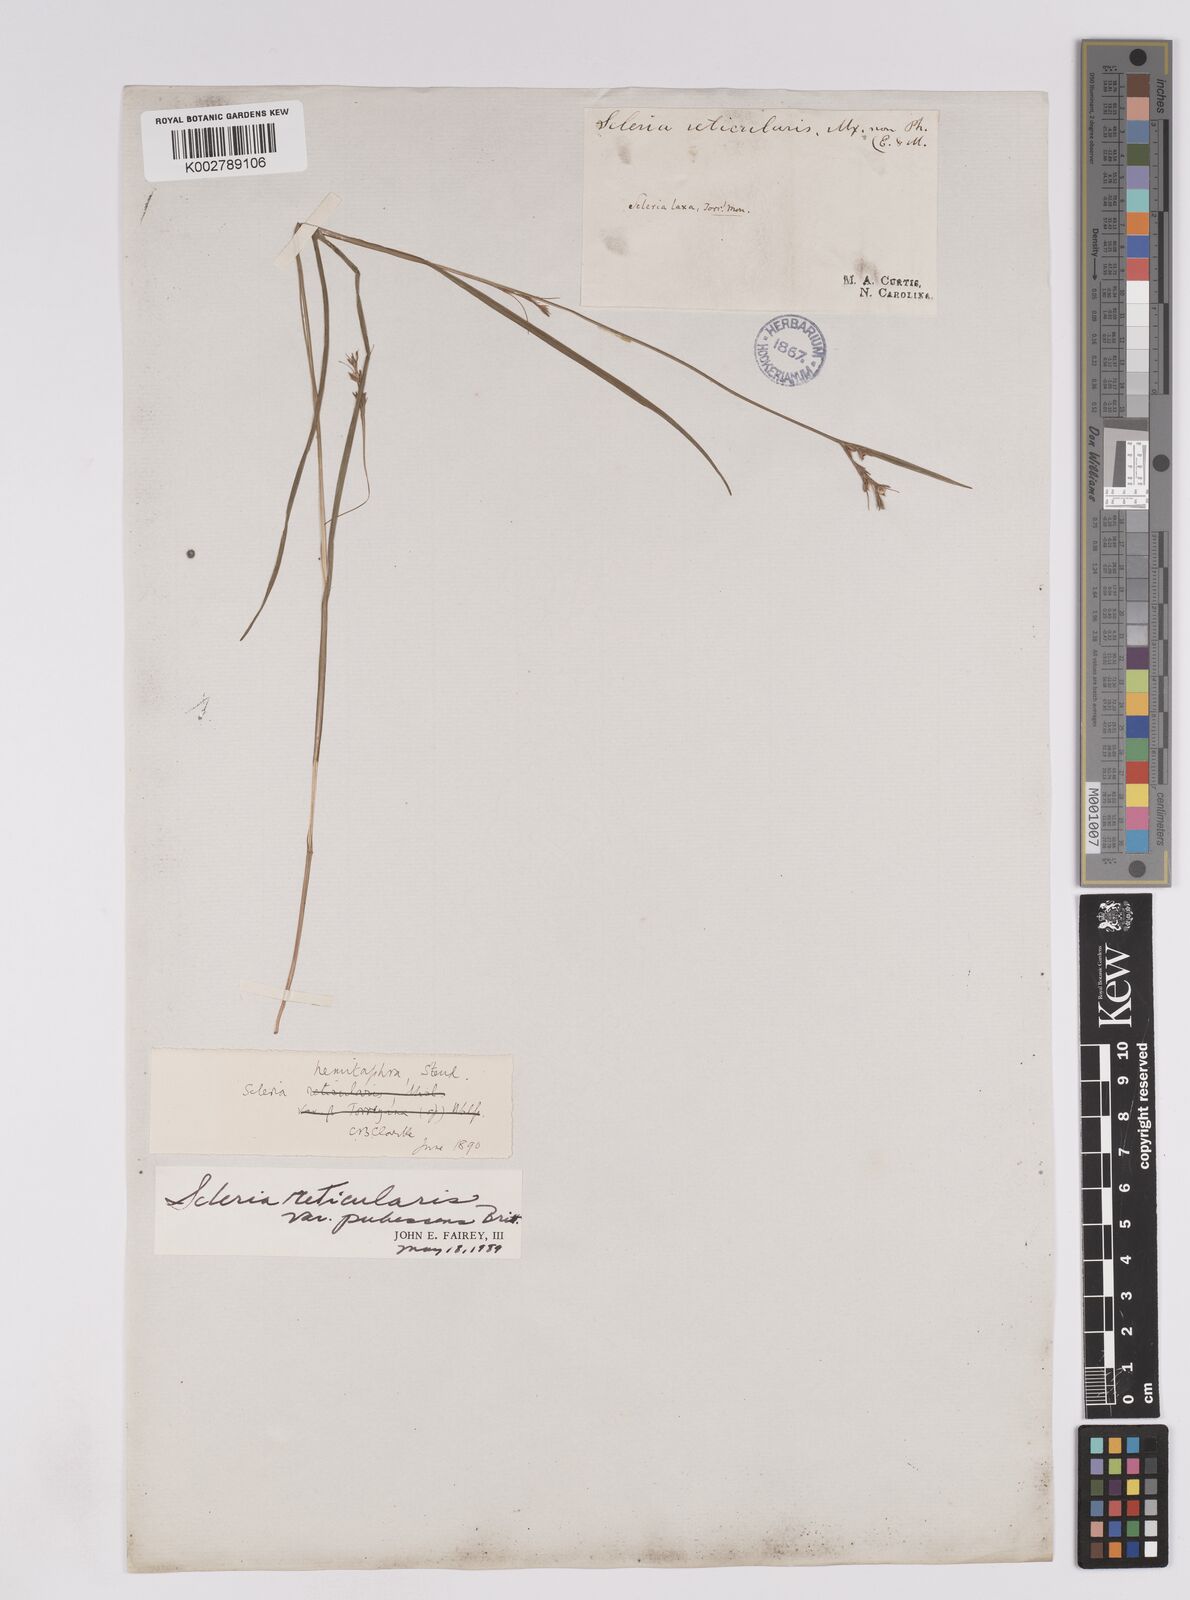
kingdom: Plantae
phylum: Tracheophyta
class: Liliopsida
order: Poales
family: Cyperaceae
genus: Scleria
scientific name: Scleria muehlenbergii
